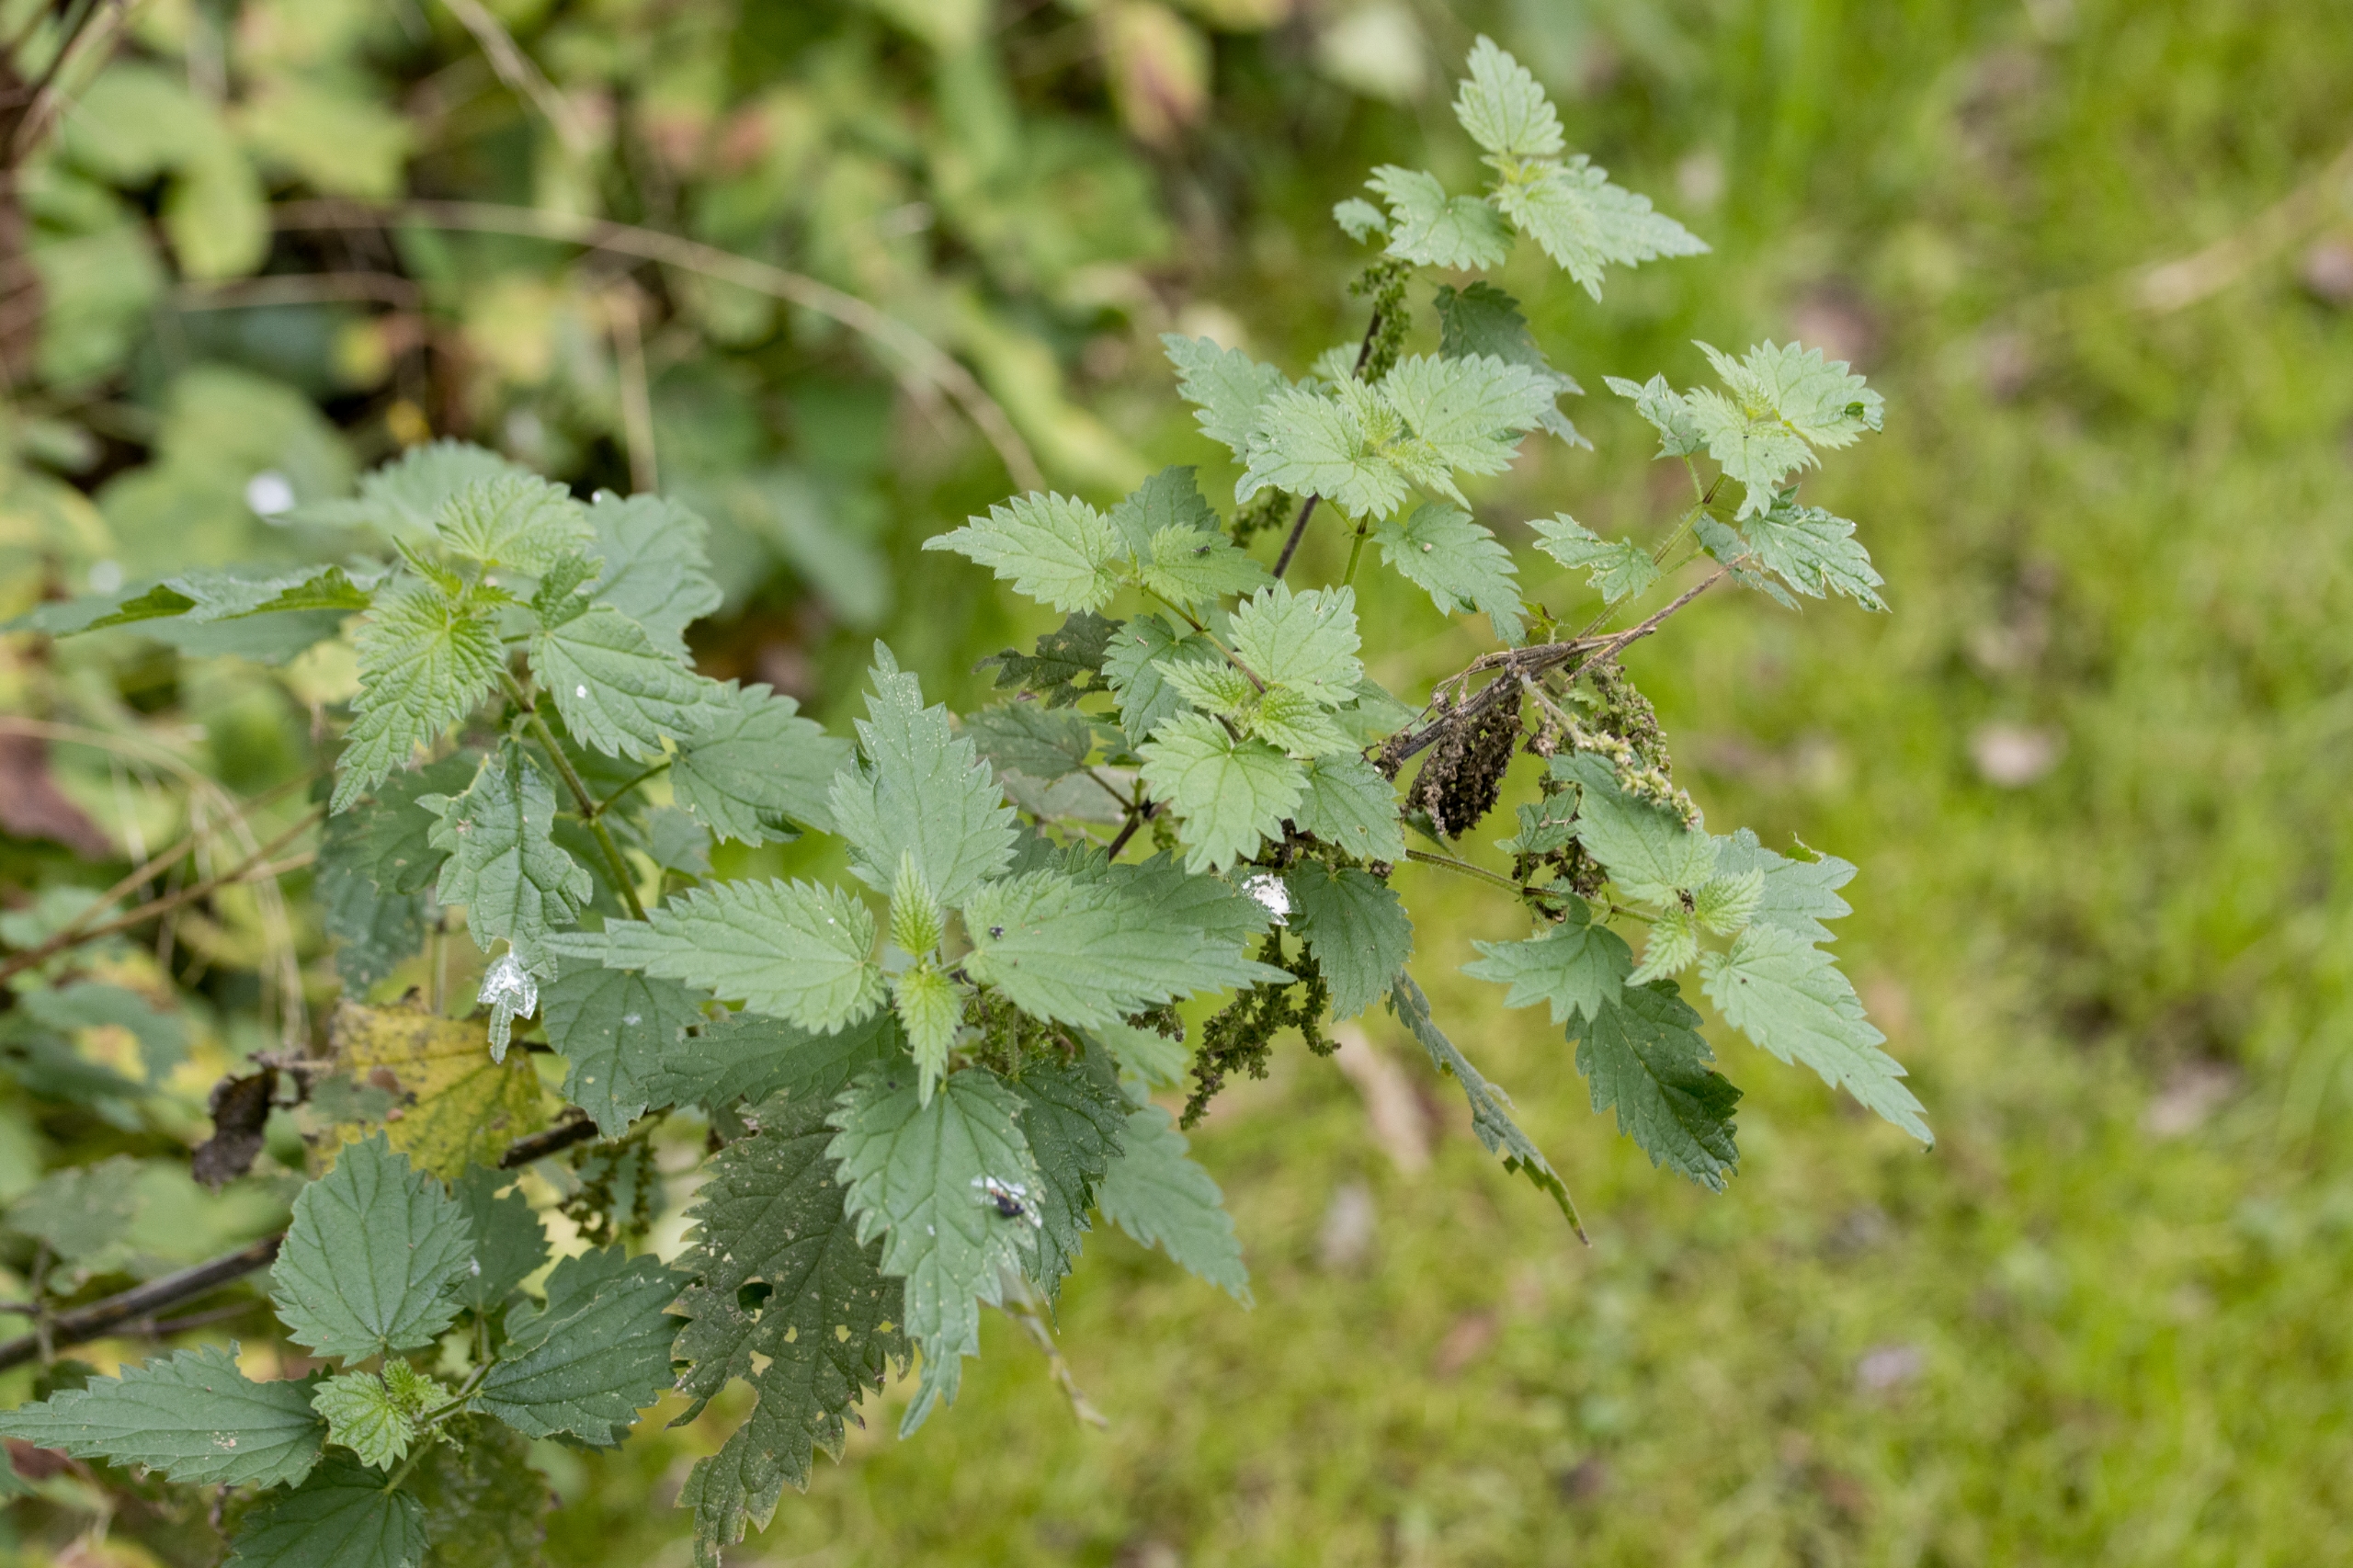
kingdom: Plantae
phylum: Tracheophyta
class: Magnoliopsida
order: Rosales
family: Urticaceae
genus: Urtica
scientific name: Urtica dioica
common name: Stor nælde
